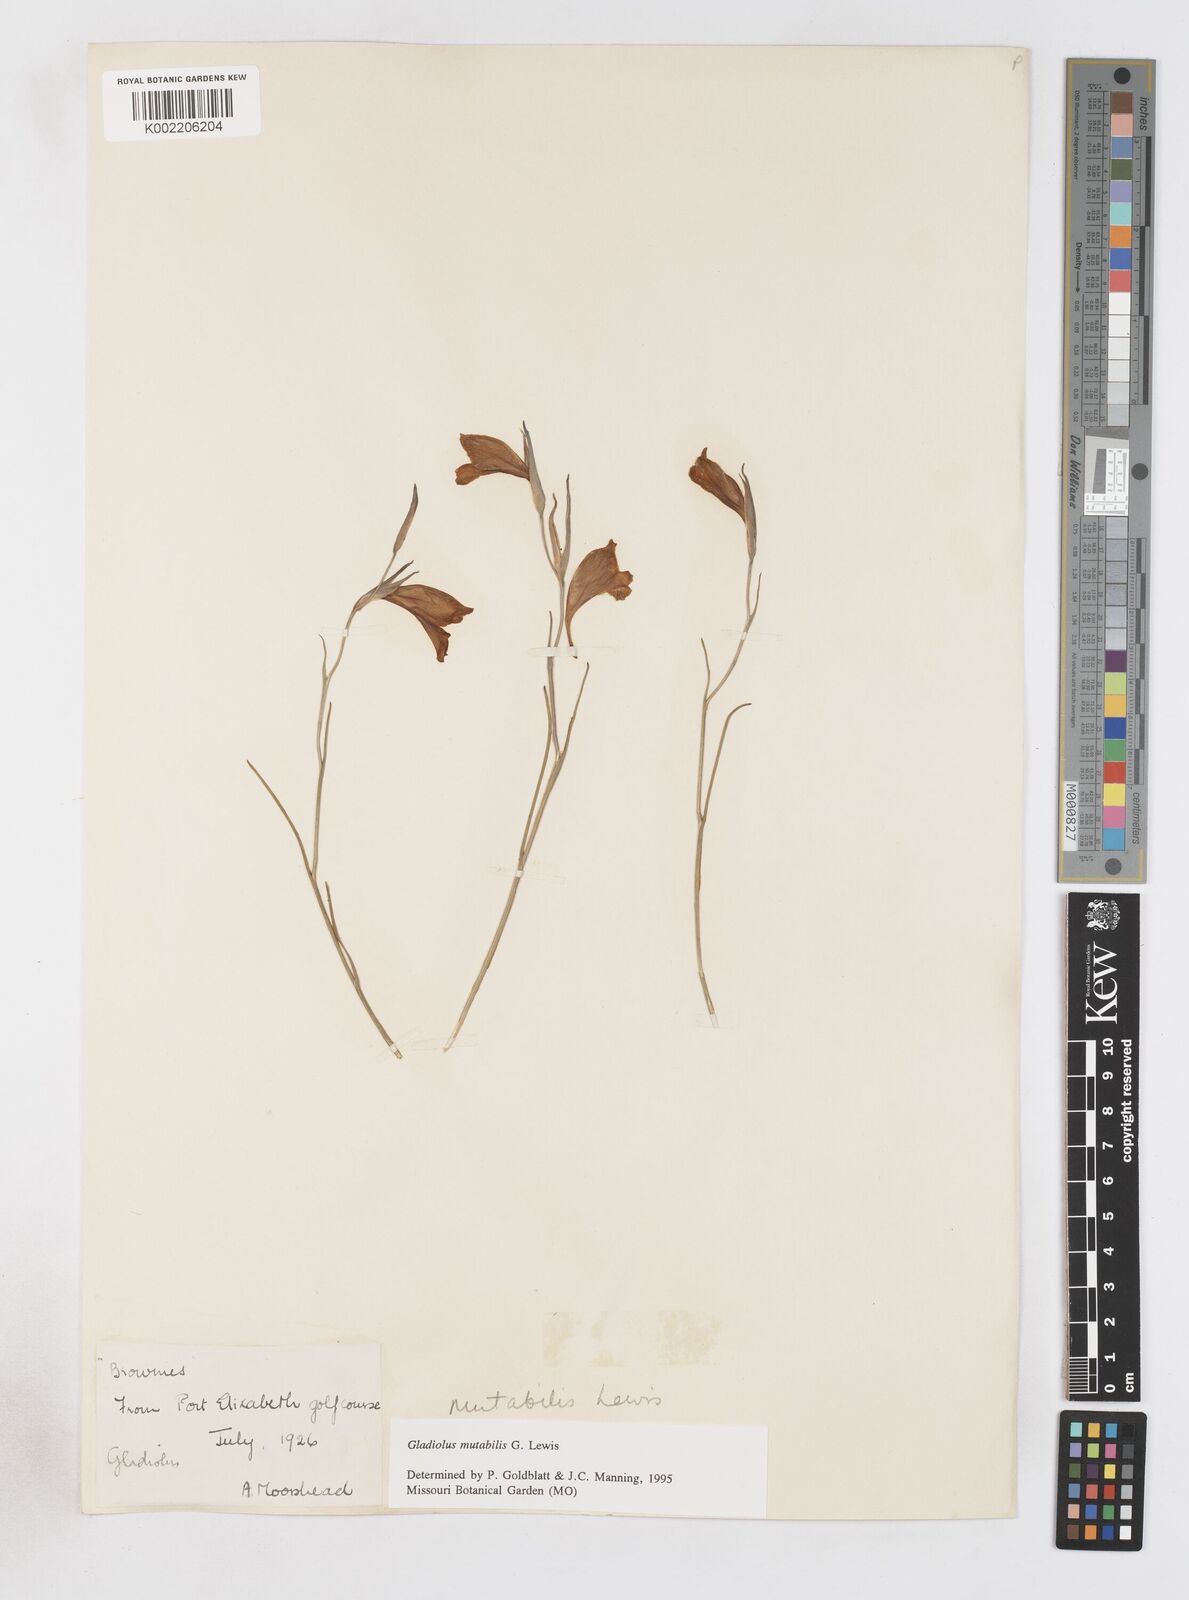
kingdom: Plantae
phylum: Tracheophyta
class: Liliopsida
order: Asparagales
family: Iridaceae
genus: Gladiolus
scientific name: Gladiolus mutabilis
